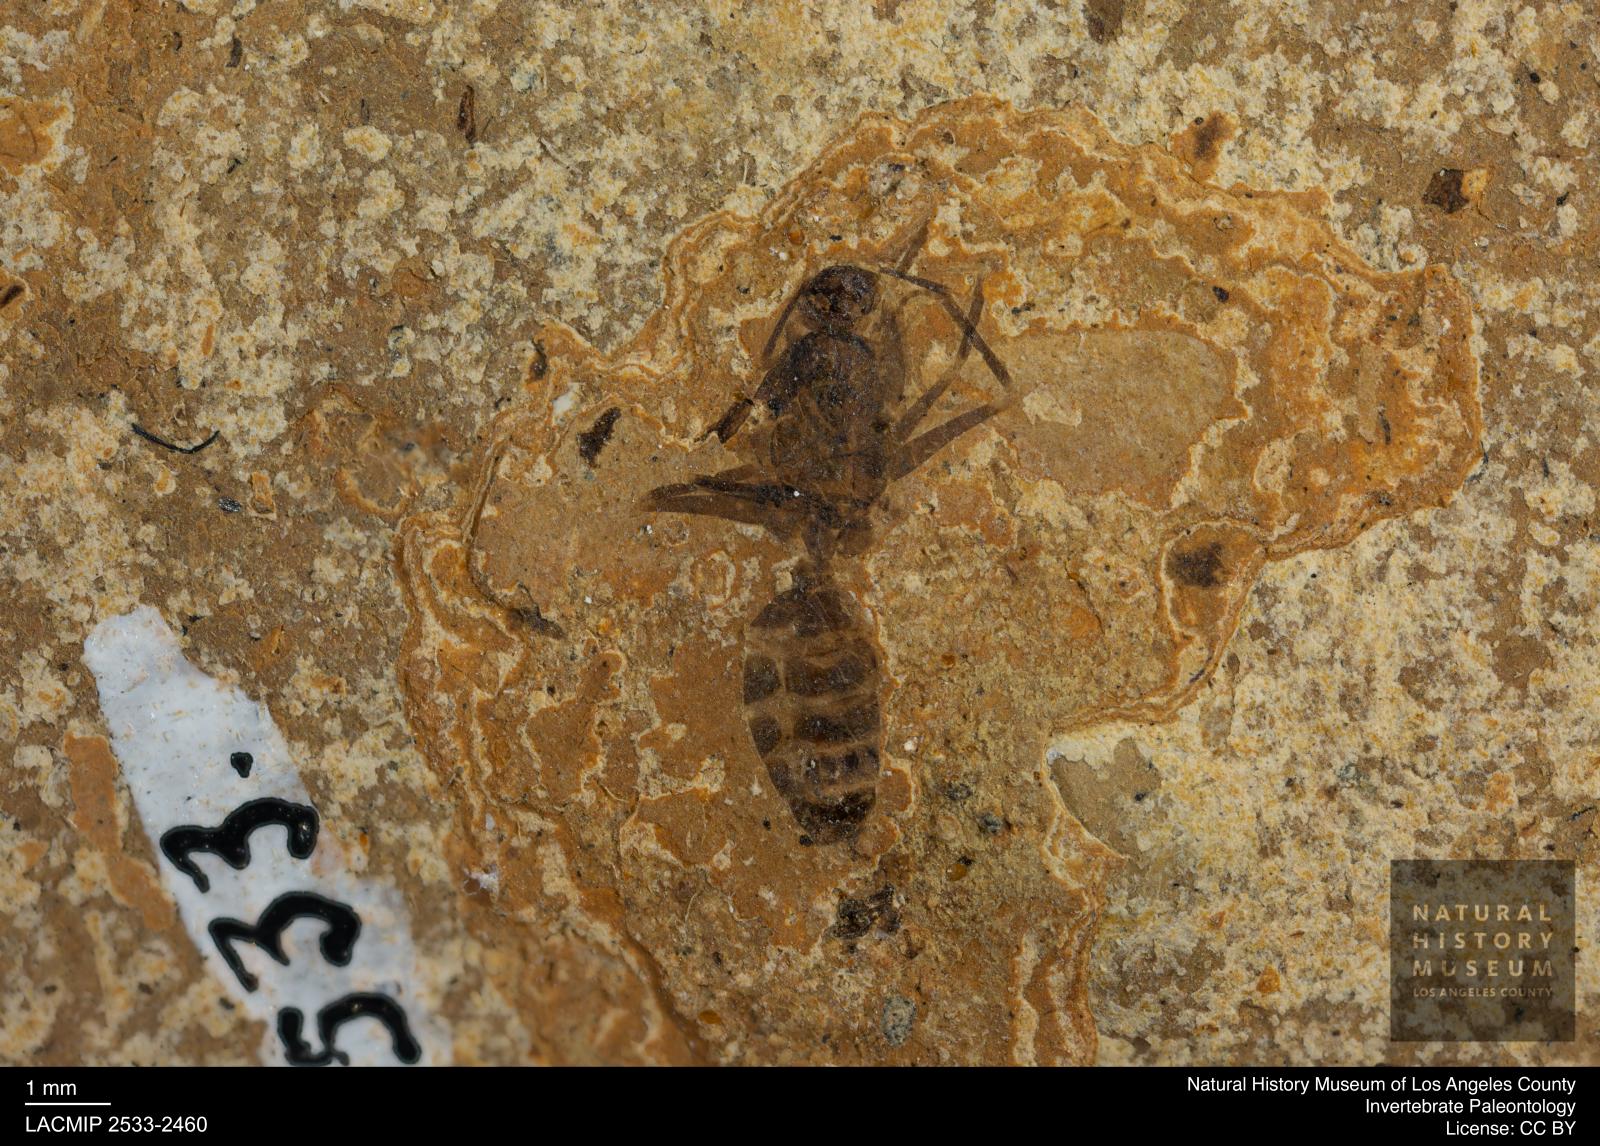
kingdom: Animalia
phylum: Arthropoda
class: Insecta
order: Hymenoptera
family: Formicidae
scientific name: Formicidae
